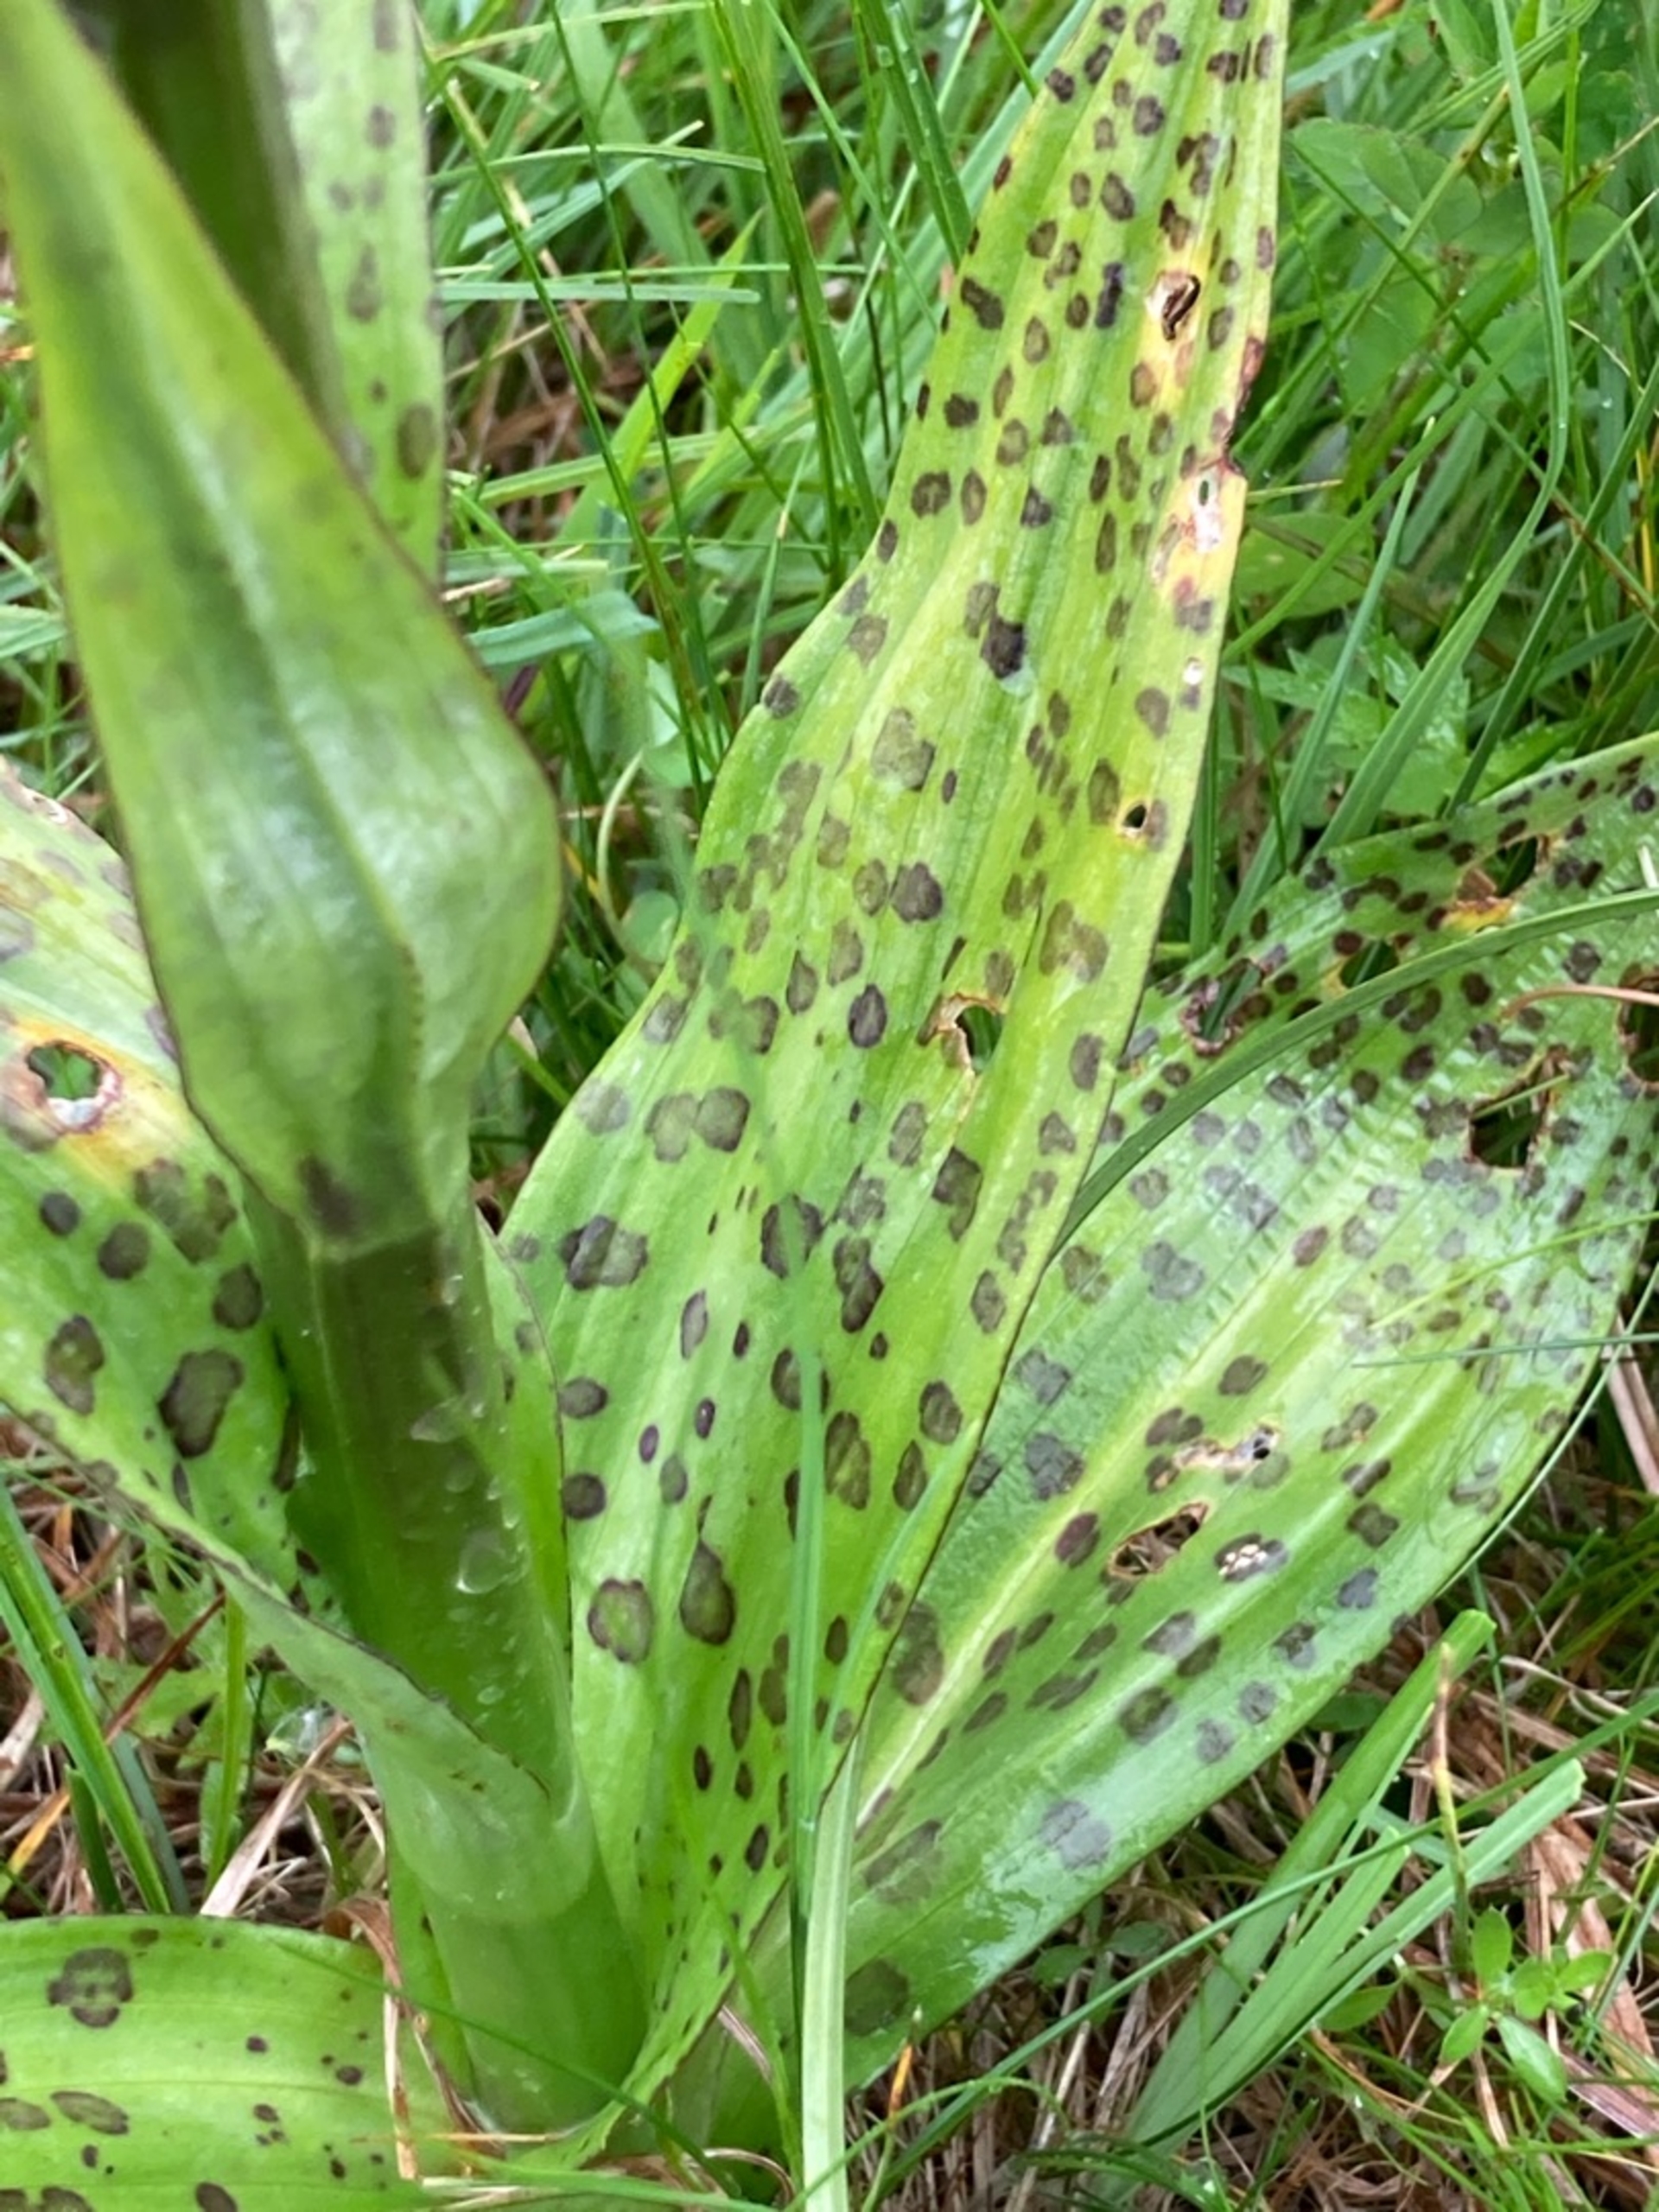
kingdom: Plantae
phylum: Tracheophyta
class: Liliopsida
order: Asparagales
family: Orchidaceae
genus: Dactylorhiza
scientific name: Dactylorhiza majalis
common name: Maj-gøgeurt
